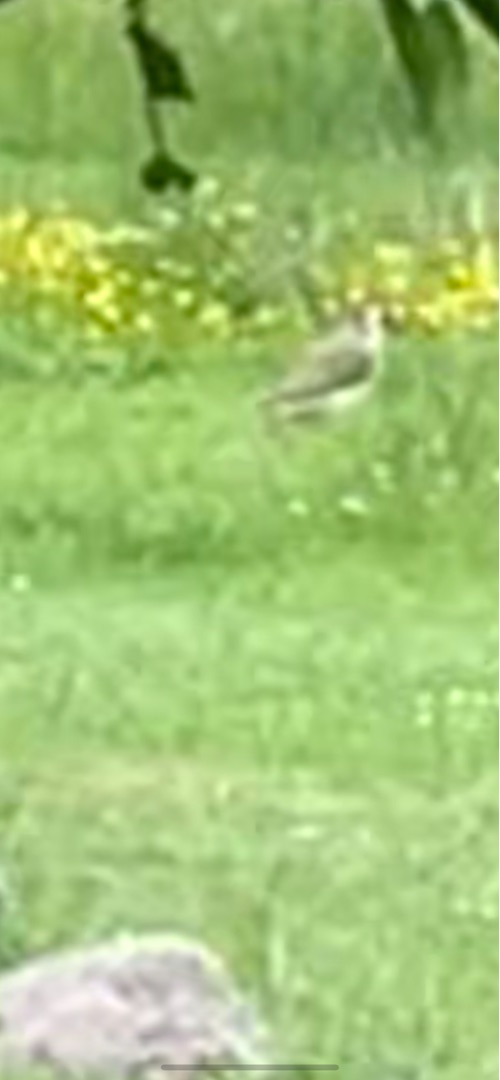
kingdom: Animalia
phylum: Chordata
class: Aves
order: Piciformes
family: Picidae
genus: Picus
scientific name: Picus viridis
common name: Grønspætte
